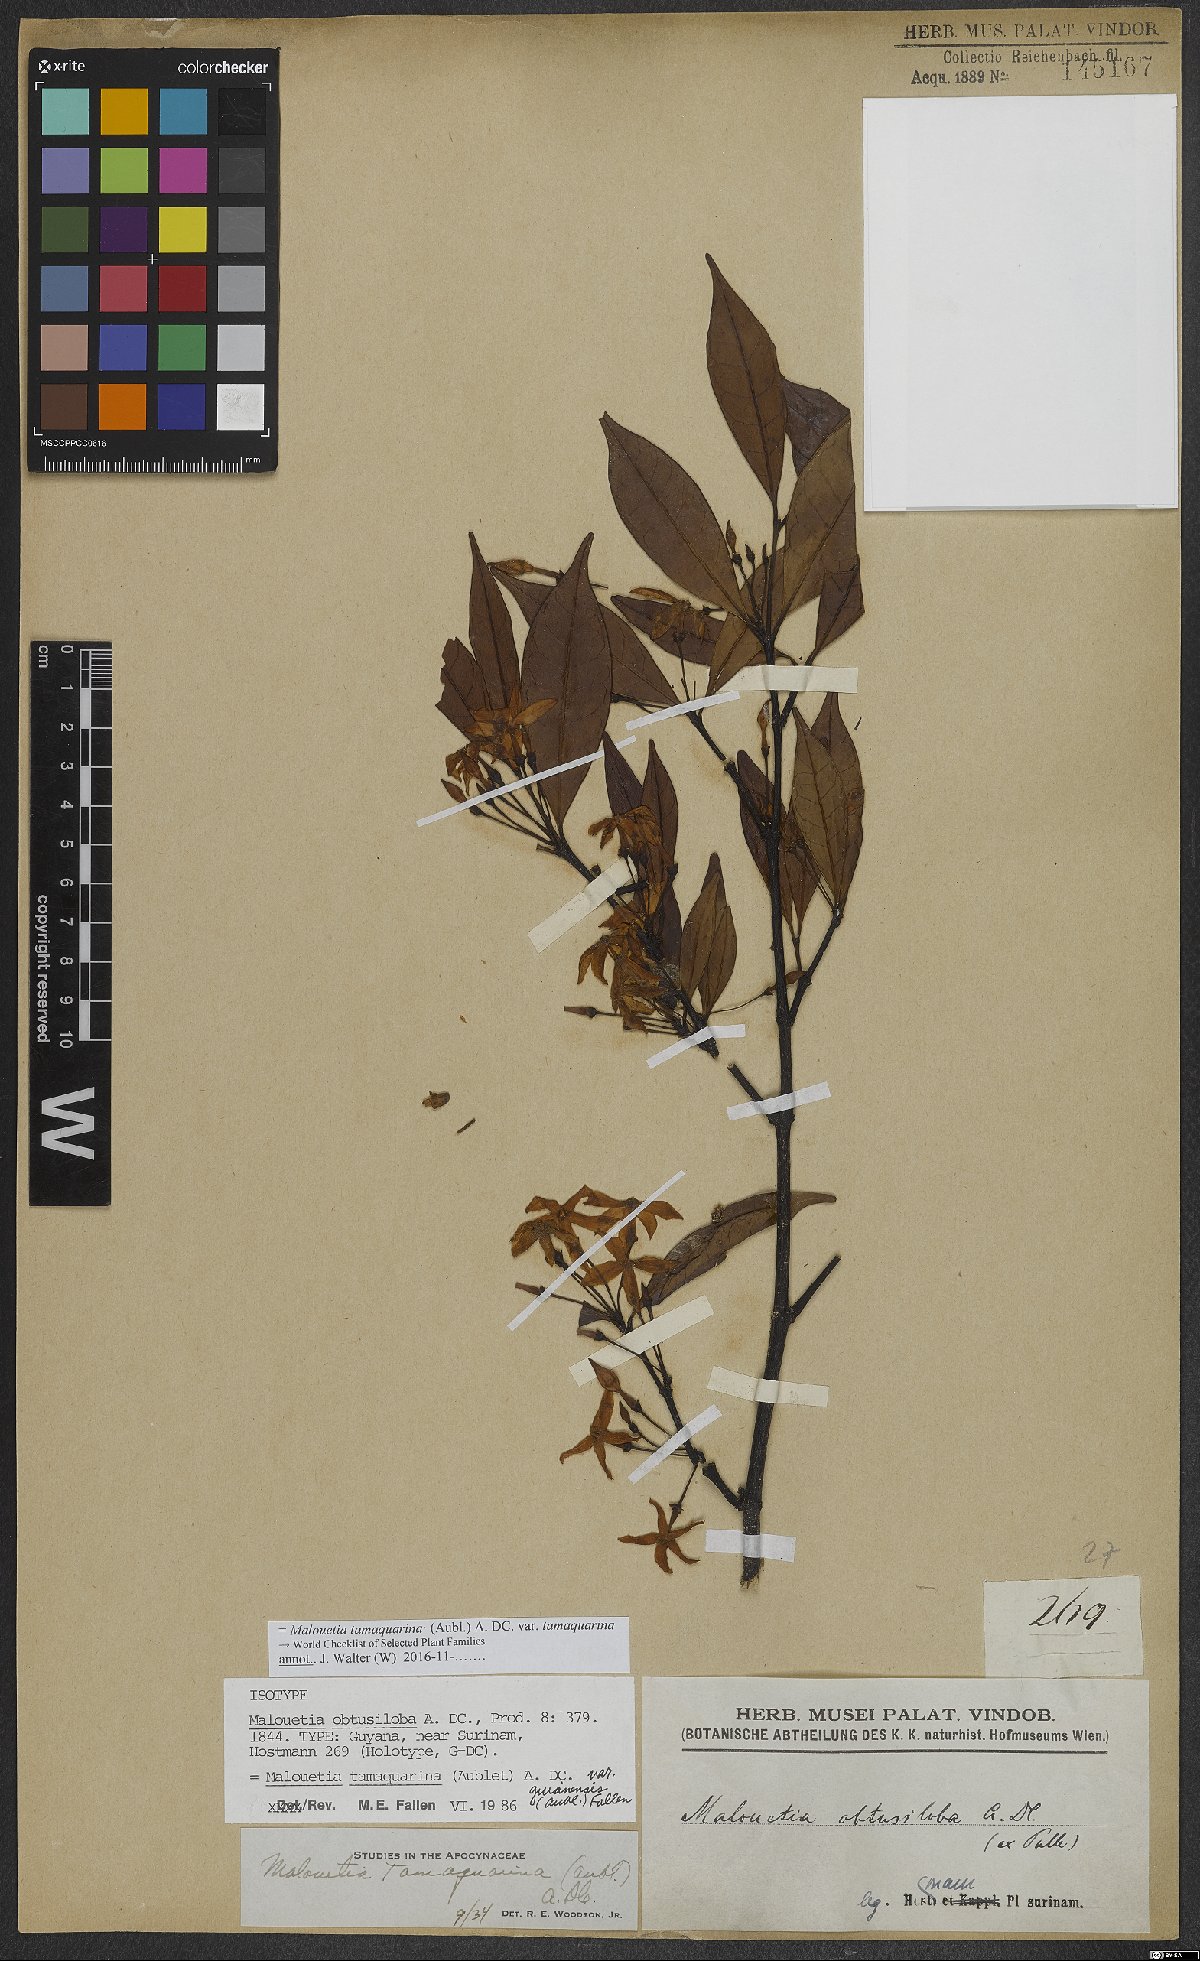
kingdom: Plantae
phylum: Tracheophyta
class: Magnoliopsida
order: Gentianales
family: Apocynaceae
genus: Malouetia
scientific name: Malouetia tamaquarina
